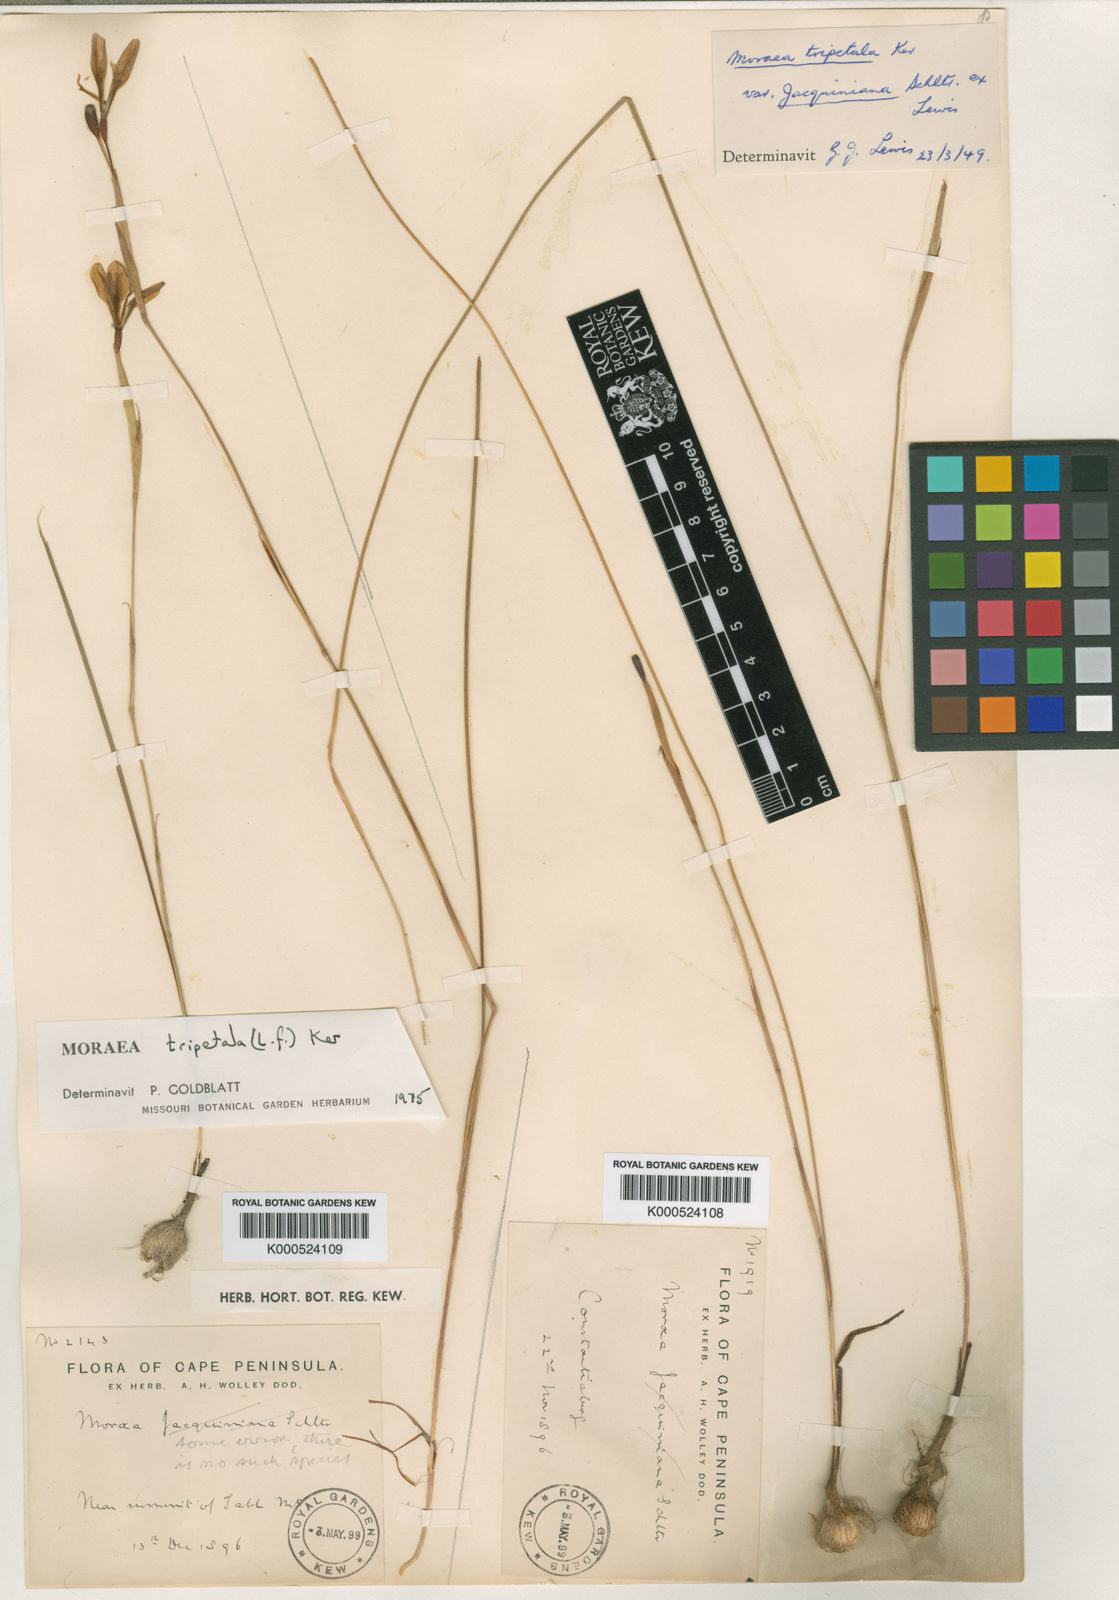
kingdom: Plantae
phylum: Tracheophyta
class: Liliopsida
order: Asparagales
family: Iridaceae
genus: Moraea
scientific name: Moraea tripetala
